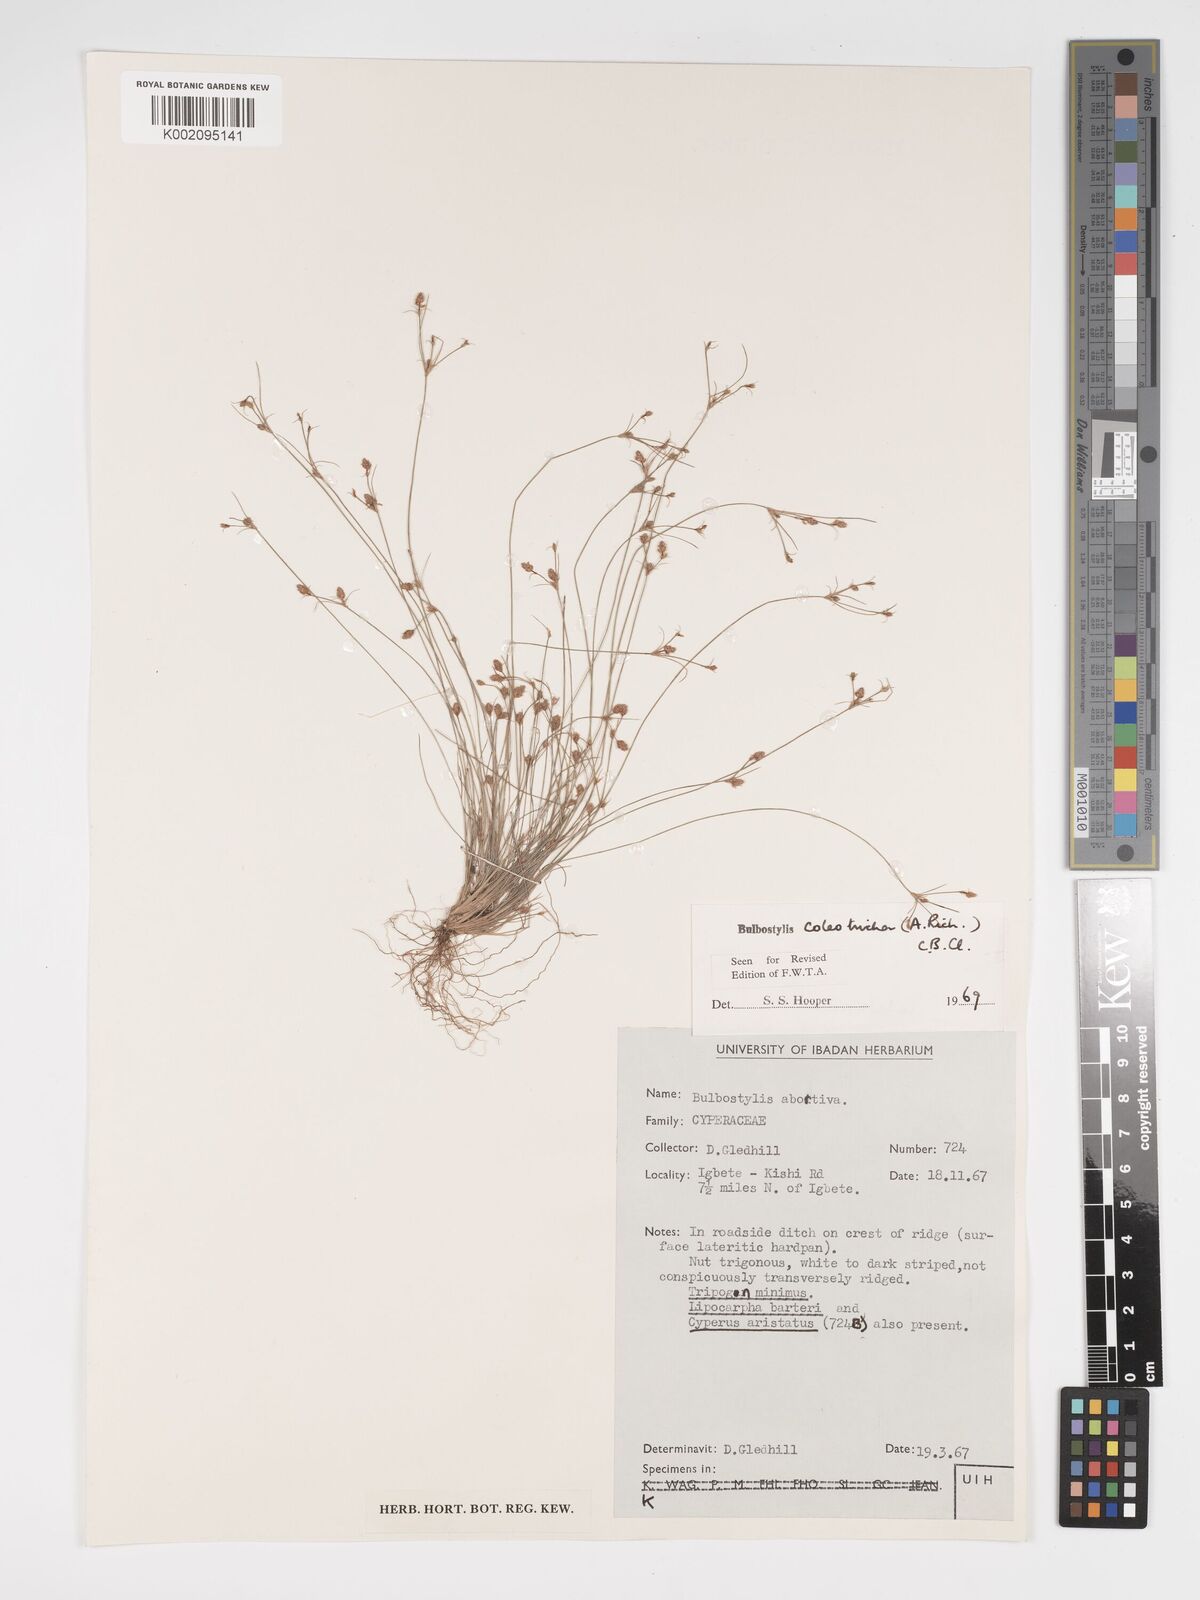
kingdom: Plantae
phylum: Tracheophyta
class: Liliopsida
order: Poales
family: Cyperaceae
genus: Bulbostylis
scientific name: Bulbostylis coleotricha
